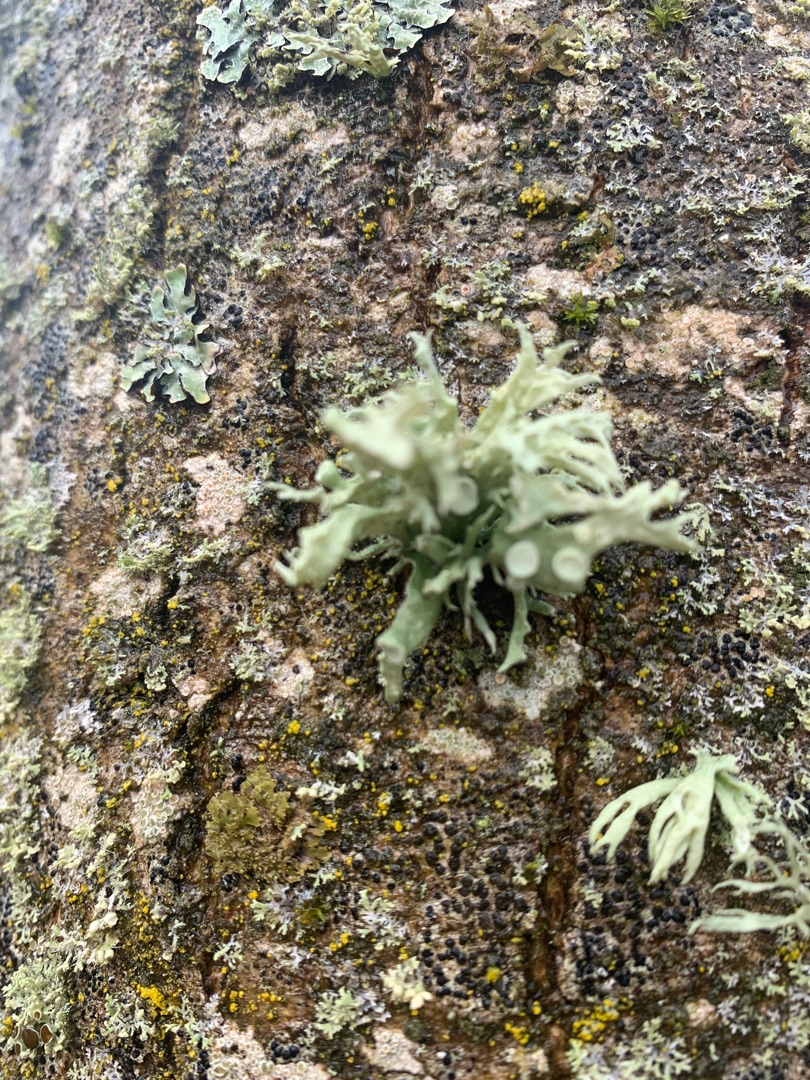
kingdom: Fungi
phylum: Ascomycota
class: Lecanoromycetes
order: Lecanorales
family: Ramalinaceae
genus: Ramalina
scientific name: Ramalina fastigiata
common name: Tue-grenlav
